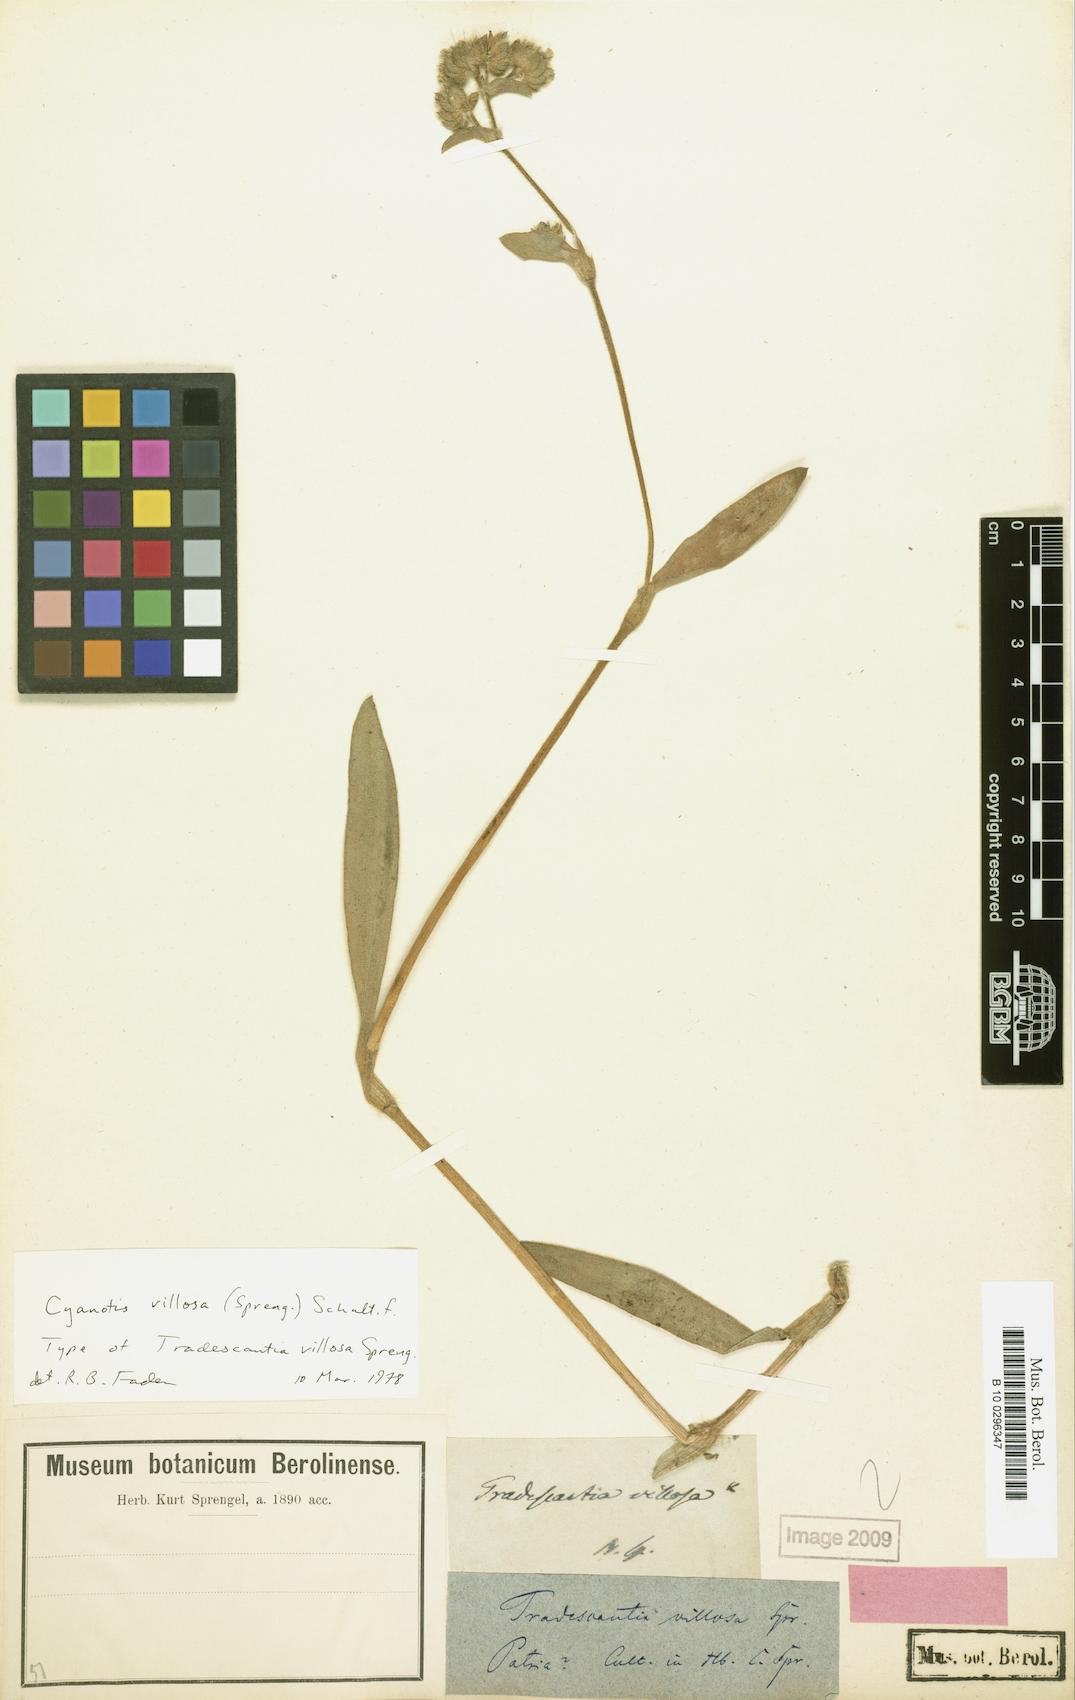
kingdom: Plantae
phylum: Tracheophyta
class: Liliopsida
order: Commelinales
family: Commelinaceae
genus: Cyanotis
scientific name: Cyanotis villosa
